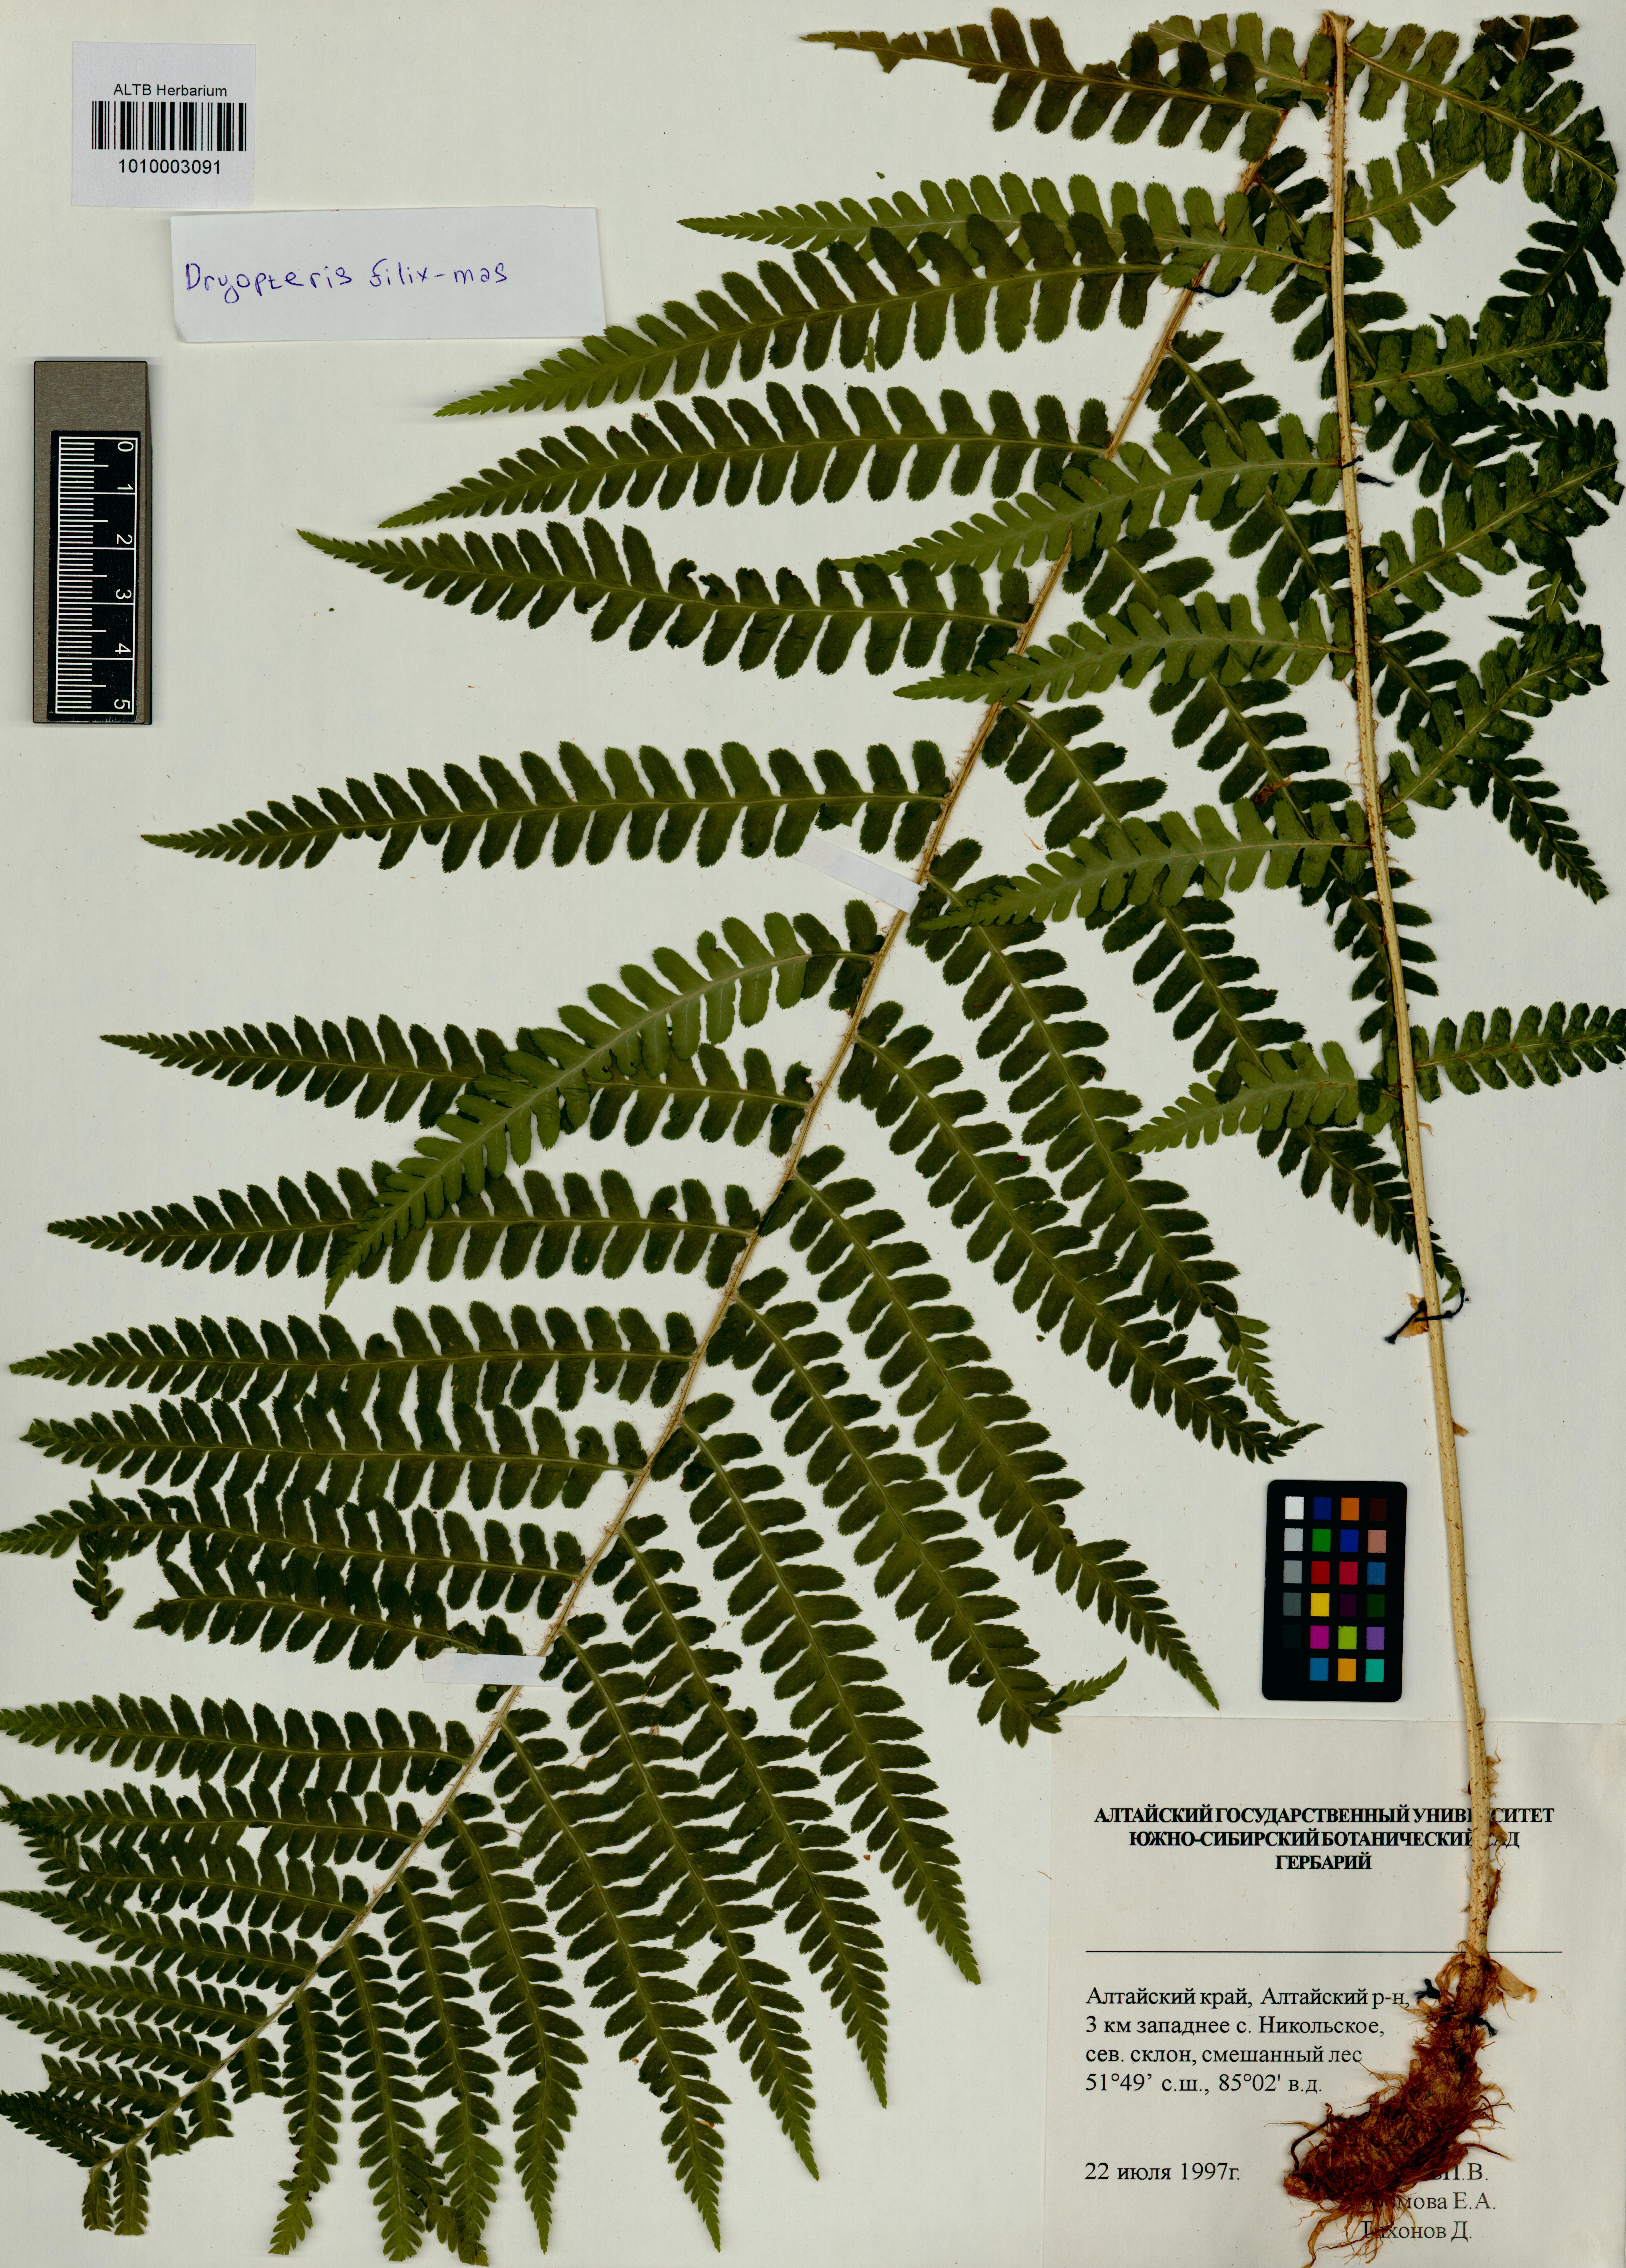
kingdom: Plantae
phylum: Tracheophyta
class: Polypodiopsida
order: Polypodiales
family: Dryopteridaceae
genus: Dryopteris
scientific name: Dryopteris filix-mas
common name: Male fern
